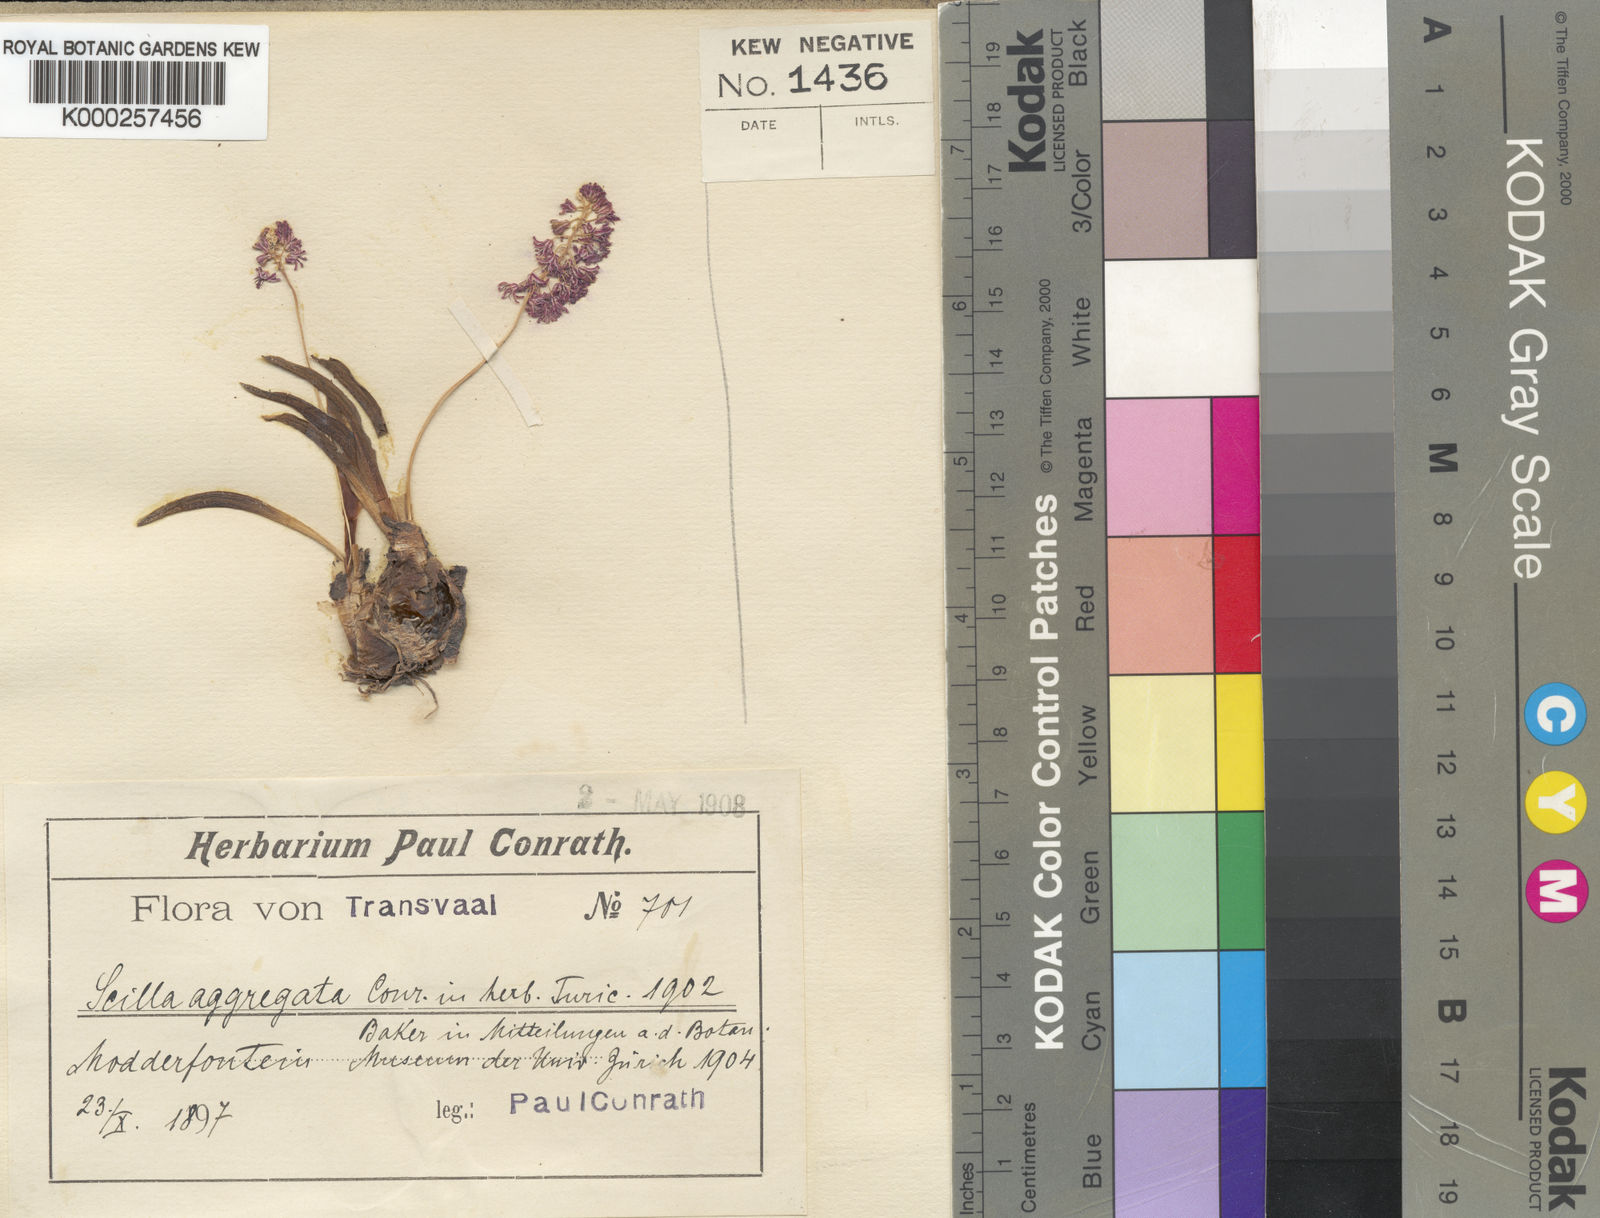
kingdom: Plantae
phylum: Tracheophyta
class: Liliopsida
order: Asparagales
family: Asparagaceae
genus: Ledebouria
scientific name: Ledebouria cooperi
